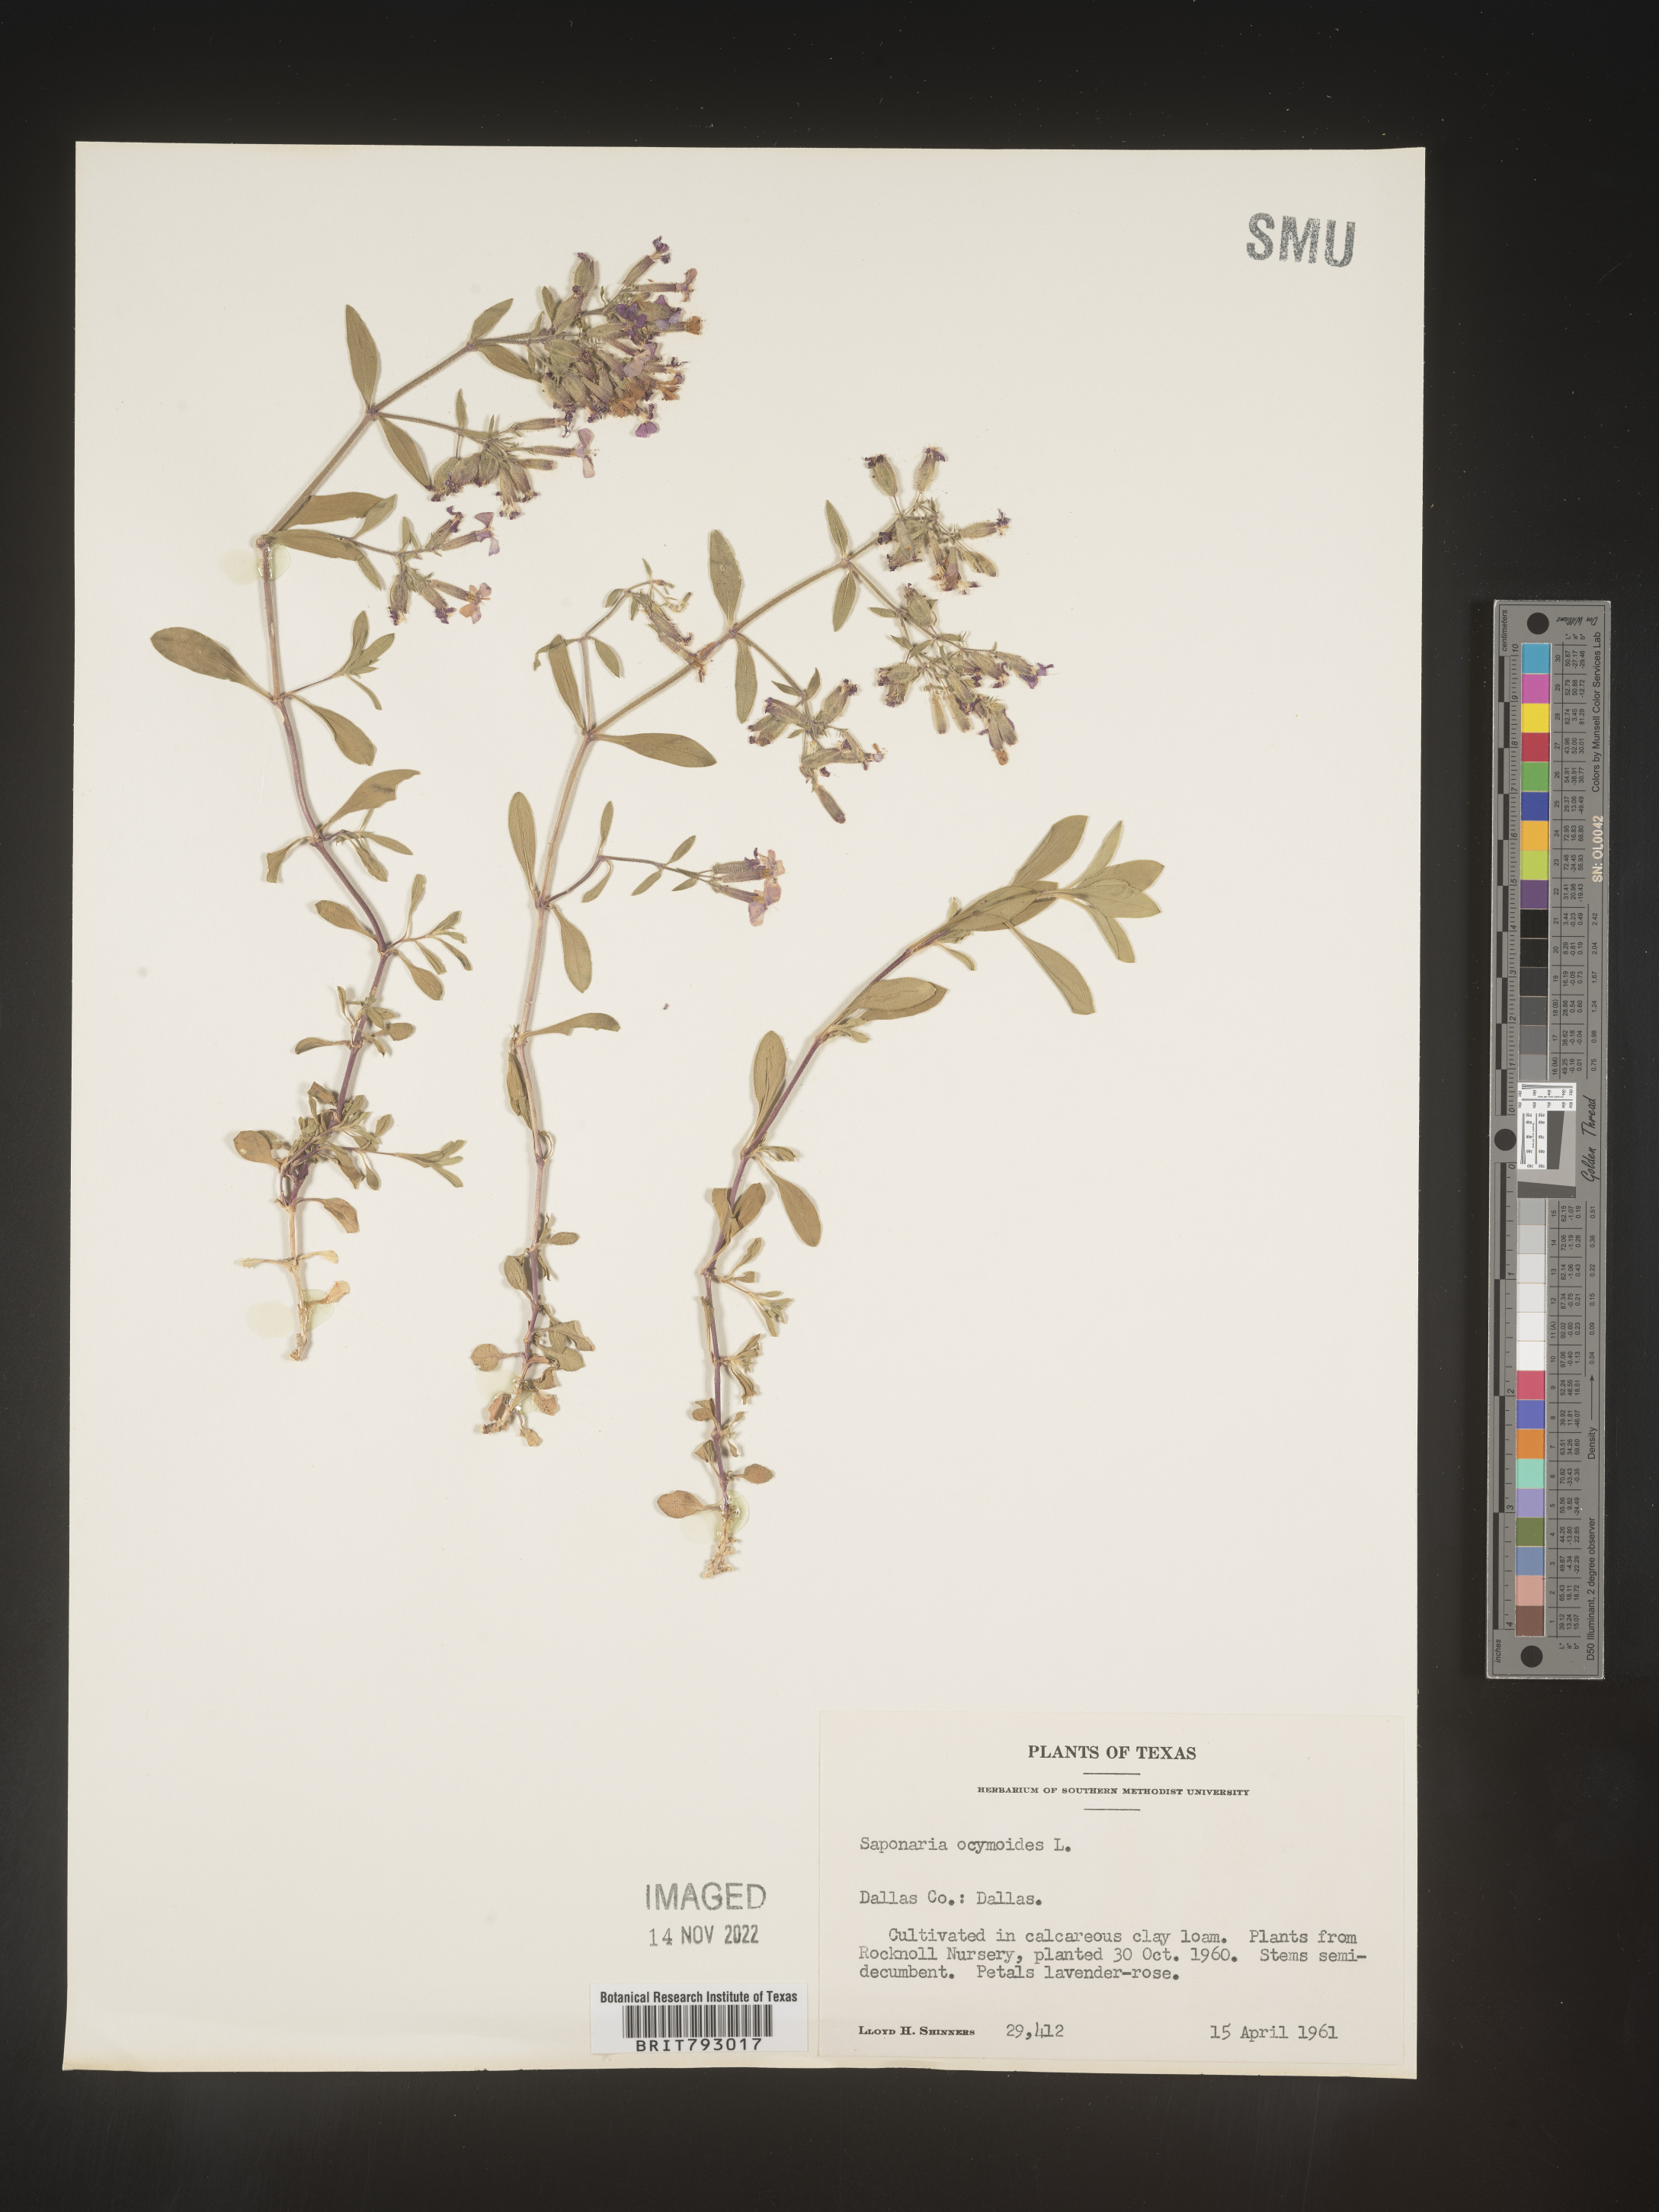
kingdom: Plantae
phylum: Tracheophyta
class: Magnoliopsida
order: Caryophyllales
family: Caryophyllaceae
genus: Saponaria
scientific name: Saponaria
